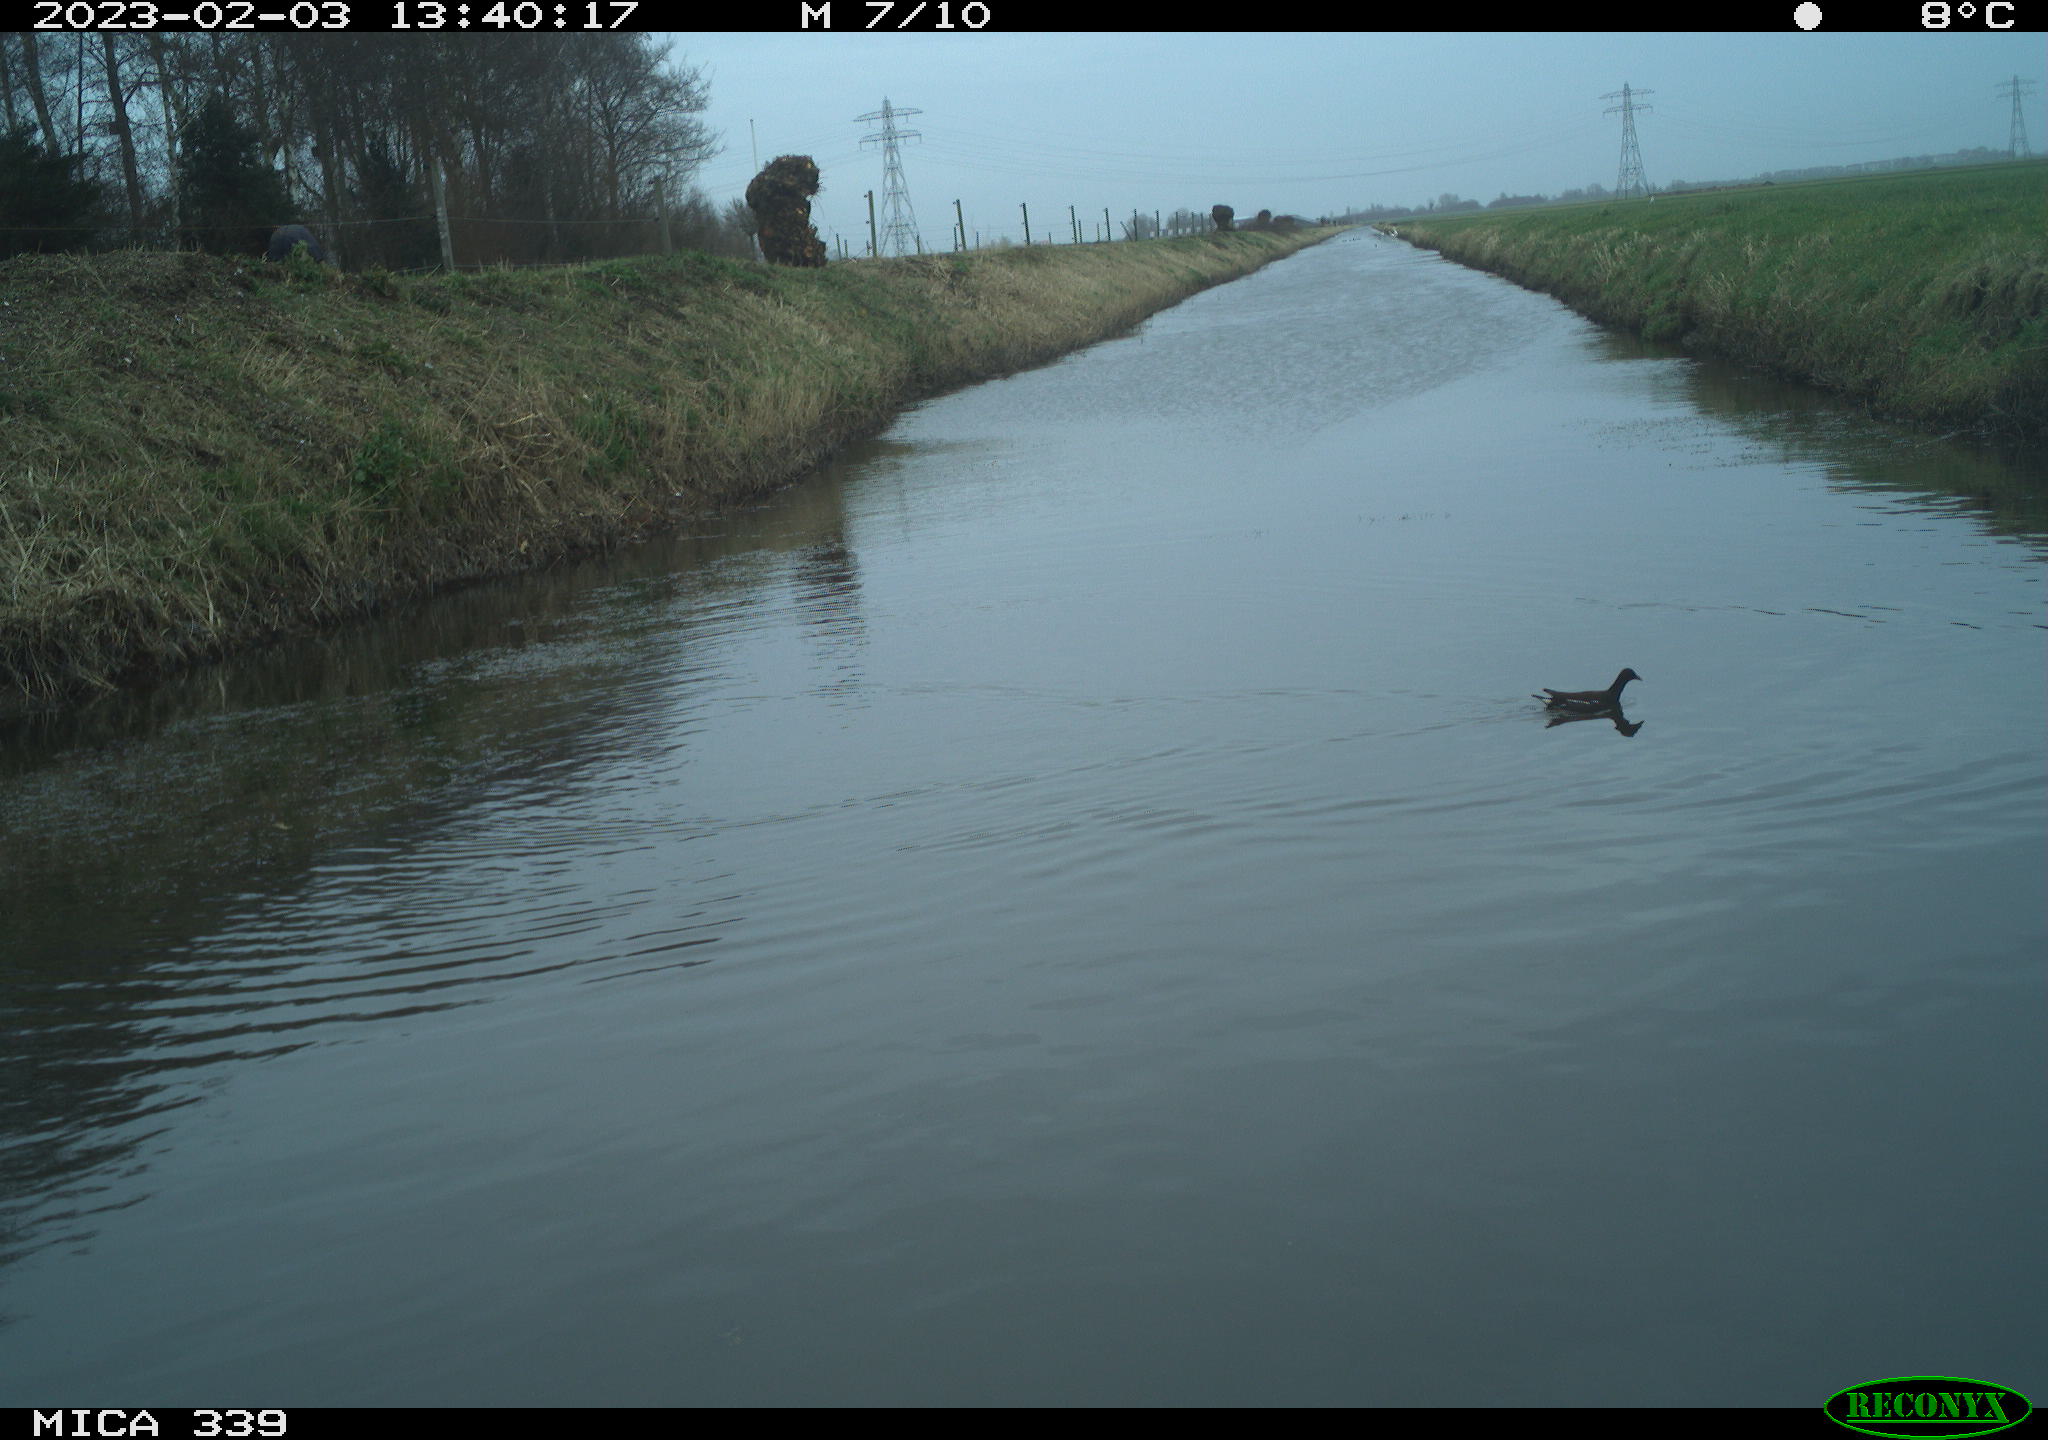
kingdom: Animalia
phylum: Chordata
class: Aves
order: Gruiformes
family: Rallidae
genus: Gallinula
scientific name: Gallinula chloropus
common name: Common moorhen
